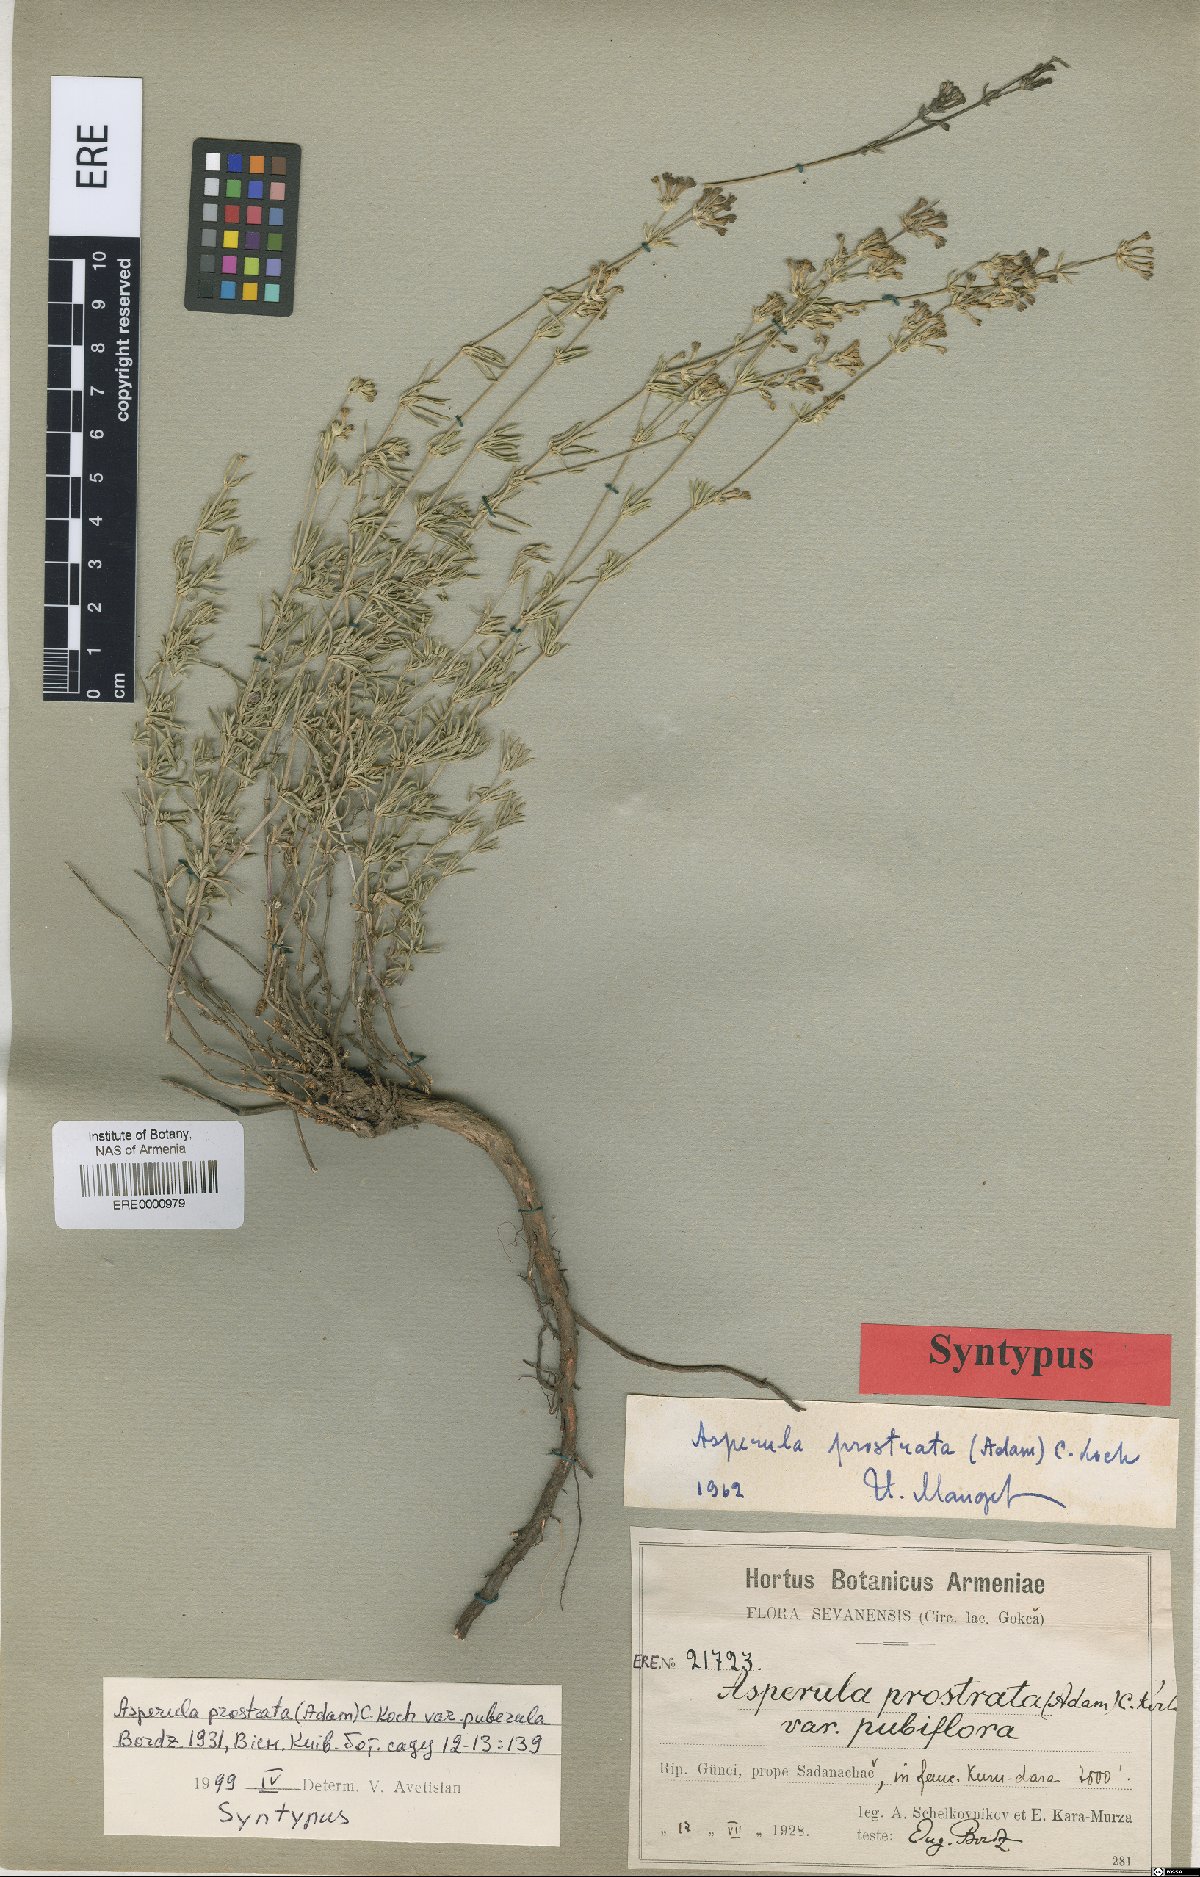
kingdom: Plantae
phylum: Tracheophyta
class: Magnoliopsida
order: Gentianales
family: Rubiaceae
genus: Asperula
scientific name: Asperula prostrata
